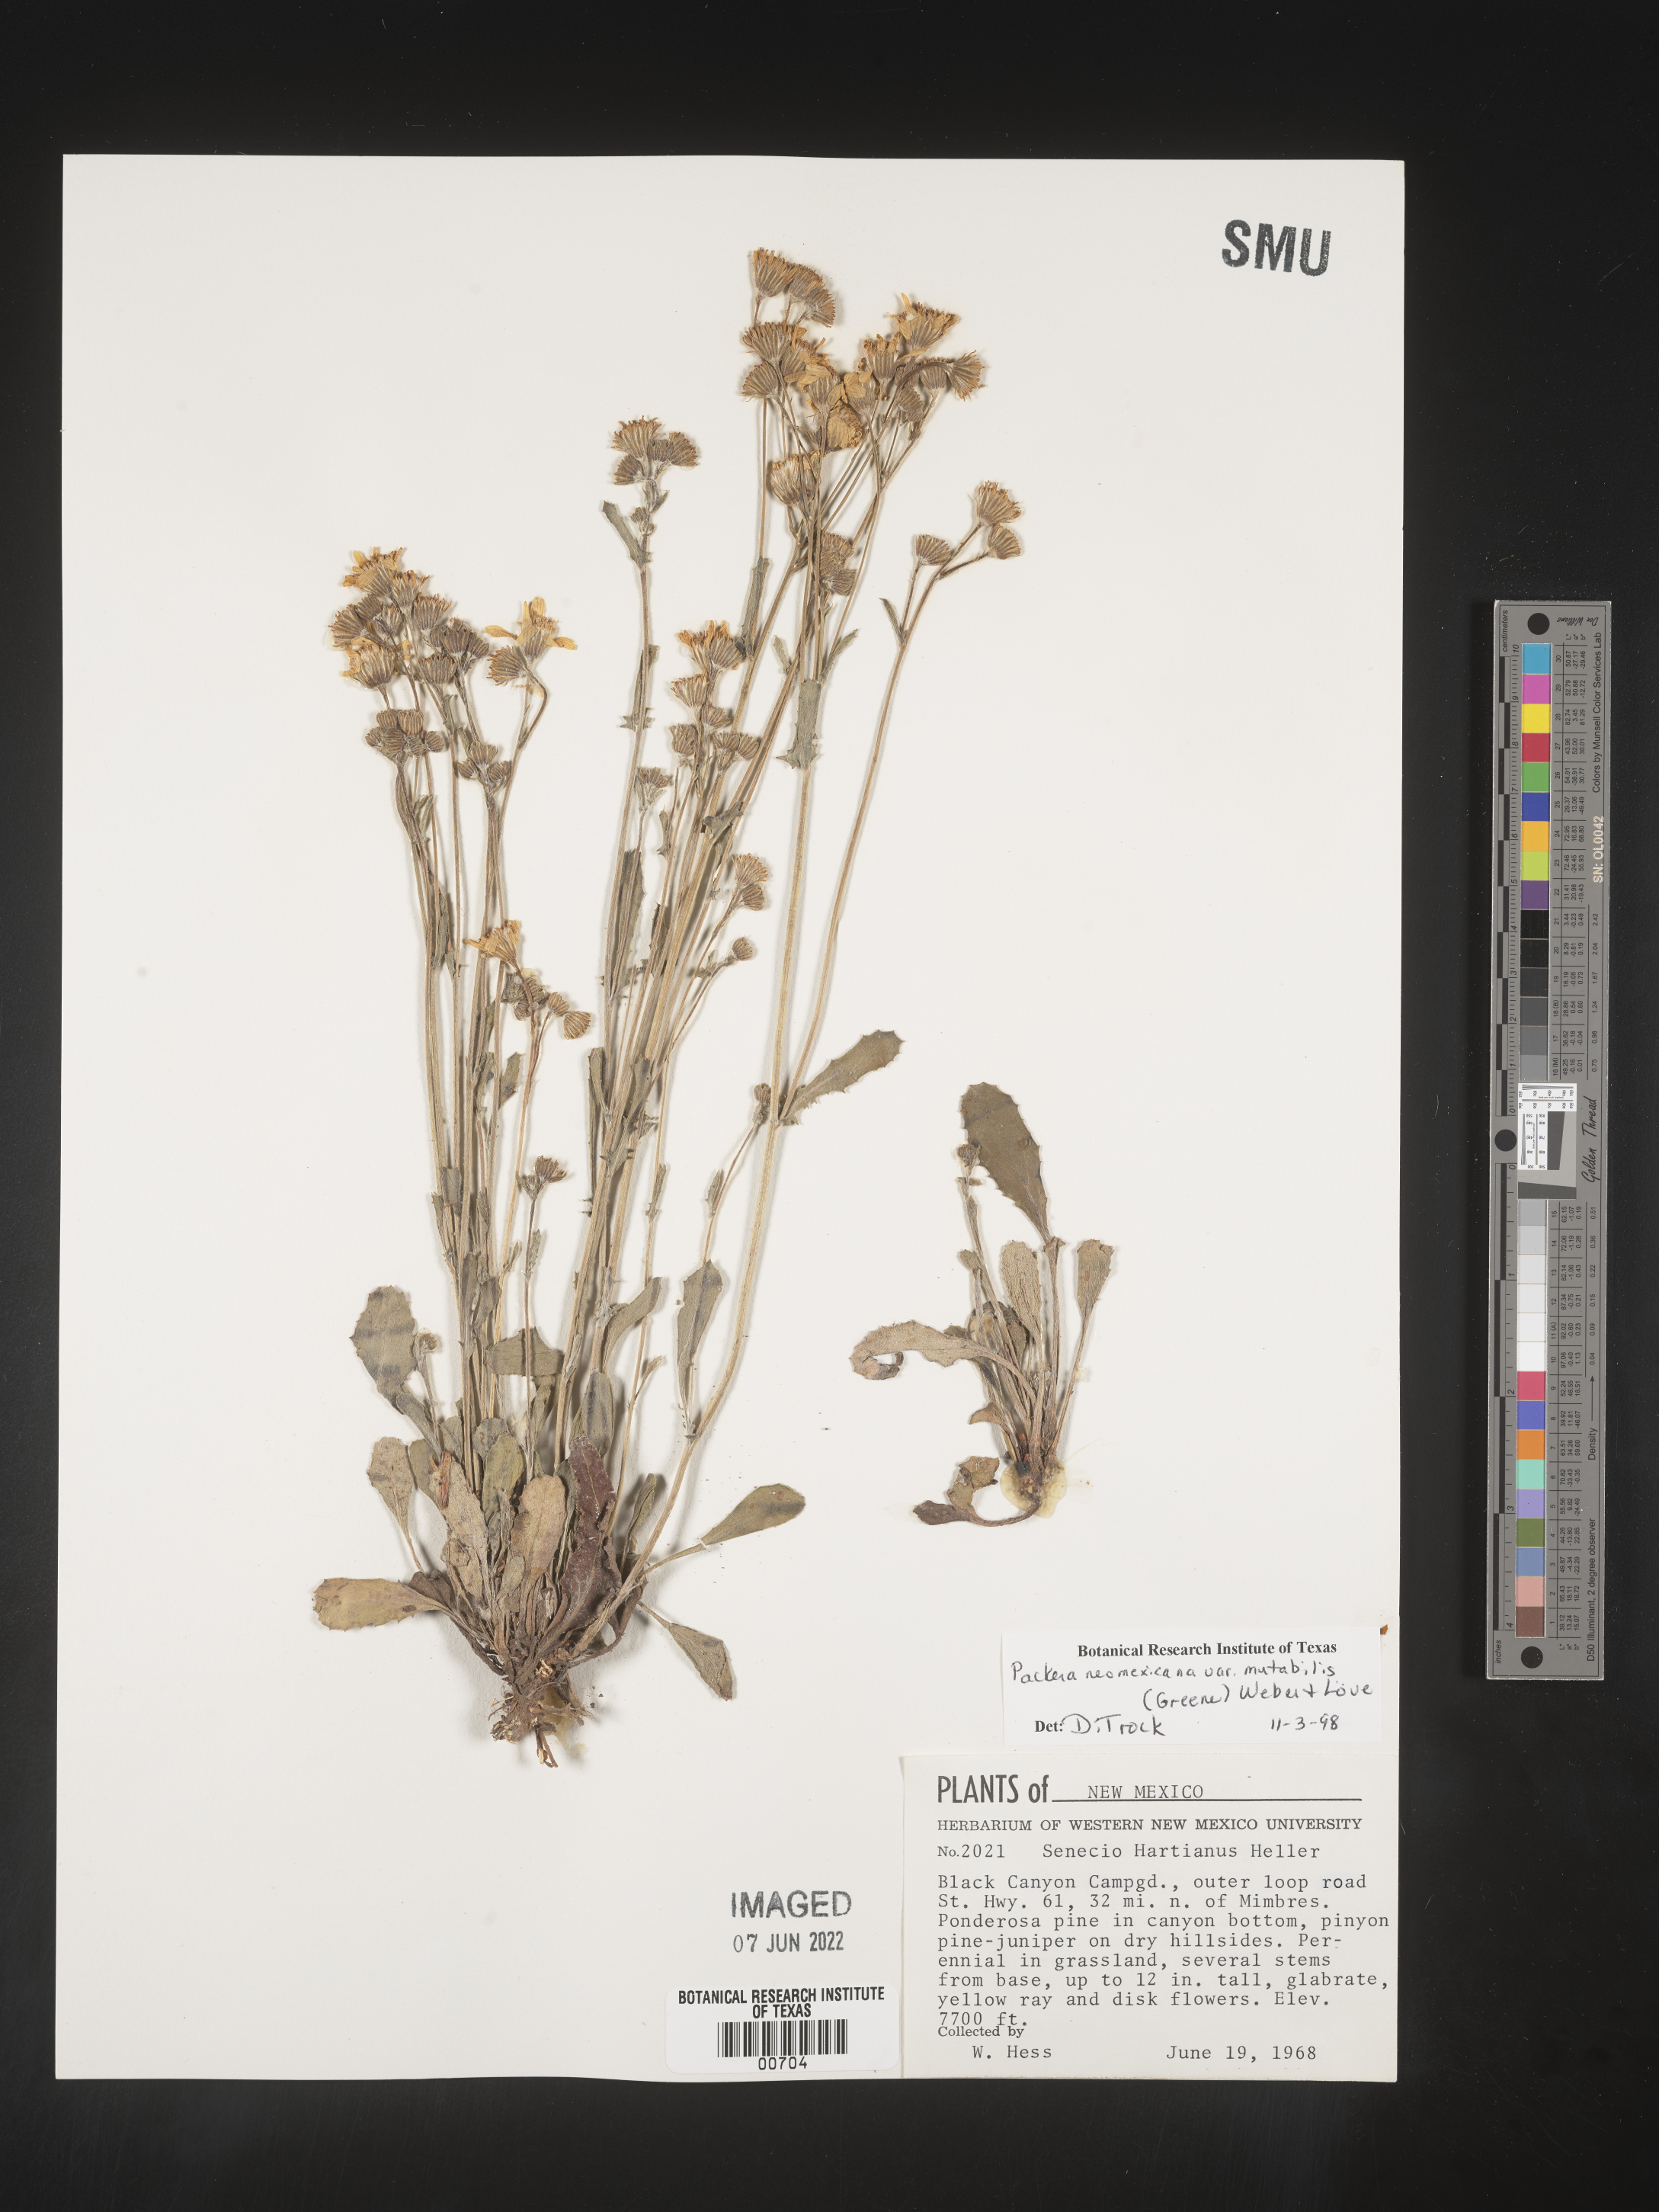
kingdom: Plantae
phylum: Tracheophyta
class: Magnoliopsida
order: Asterales
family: Asteraceae
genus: Packera
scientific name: Packera neomexicana
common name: New mexico butterweed
